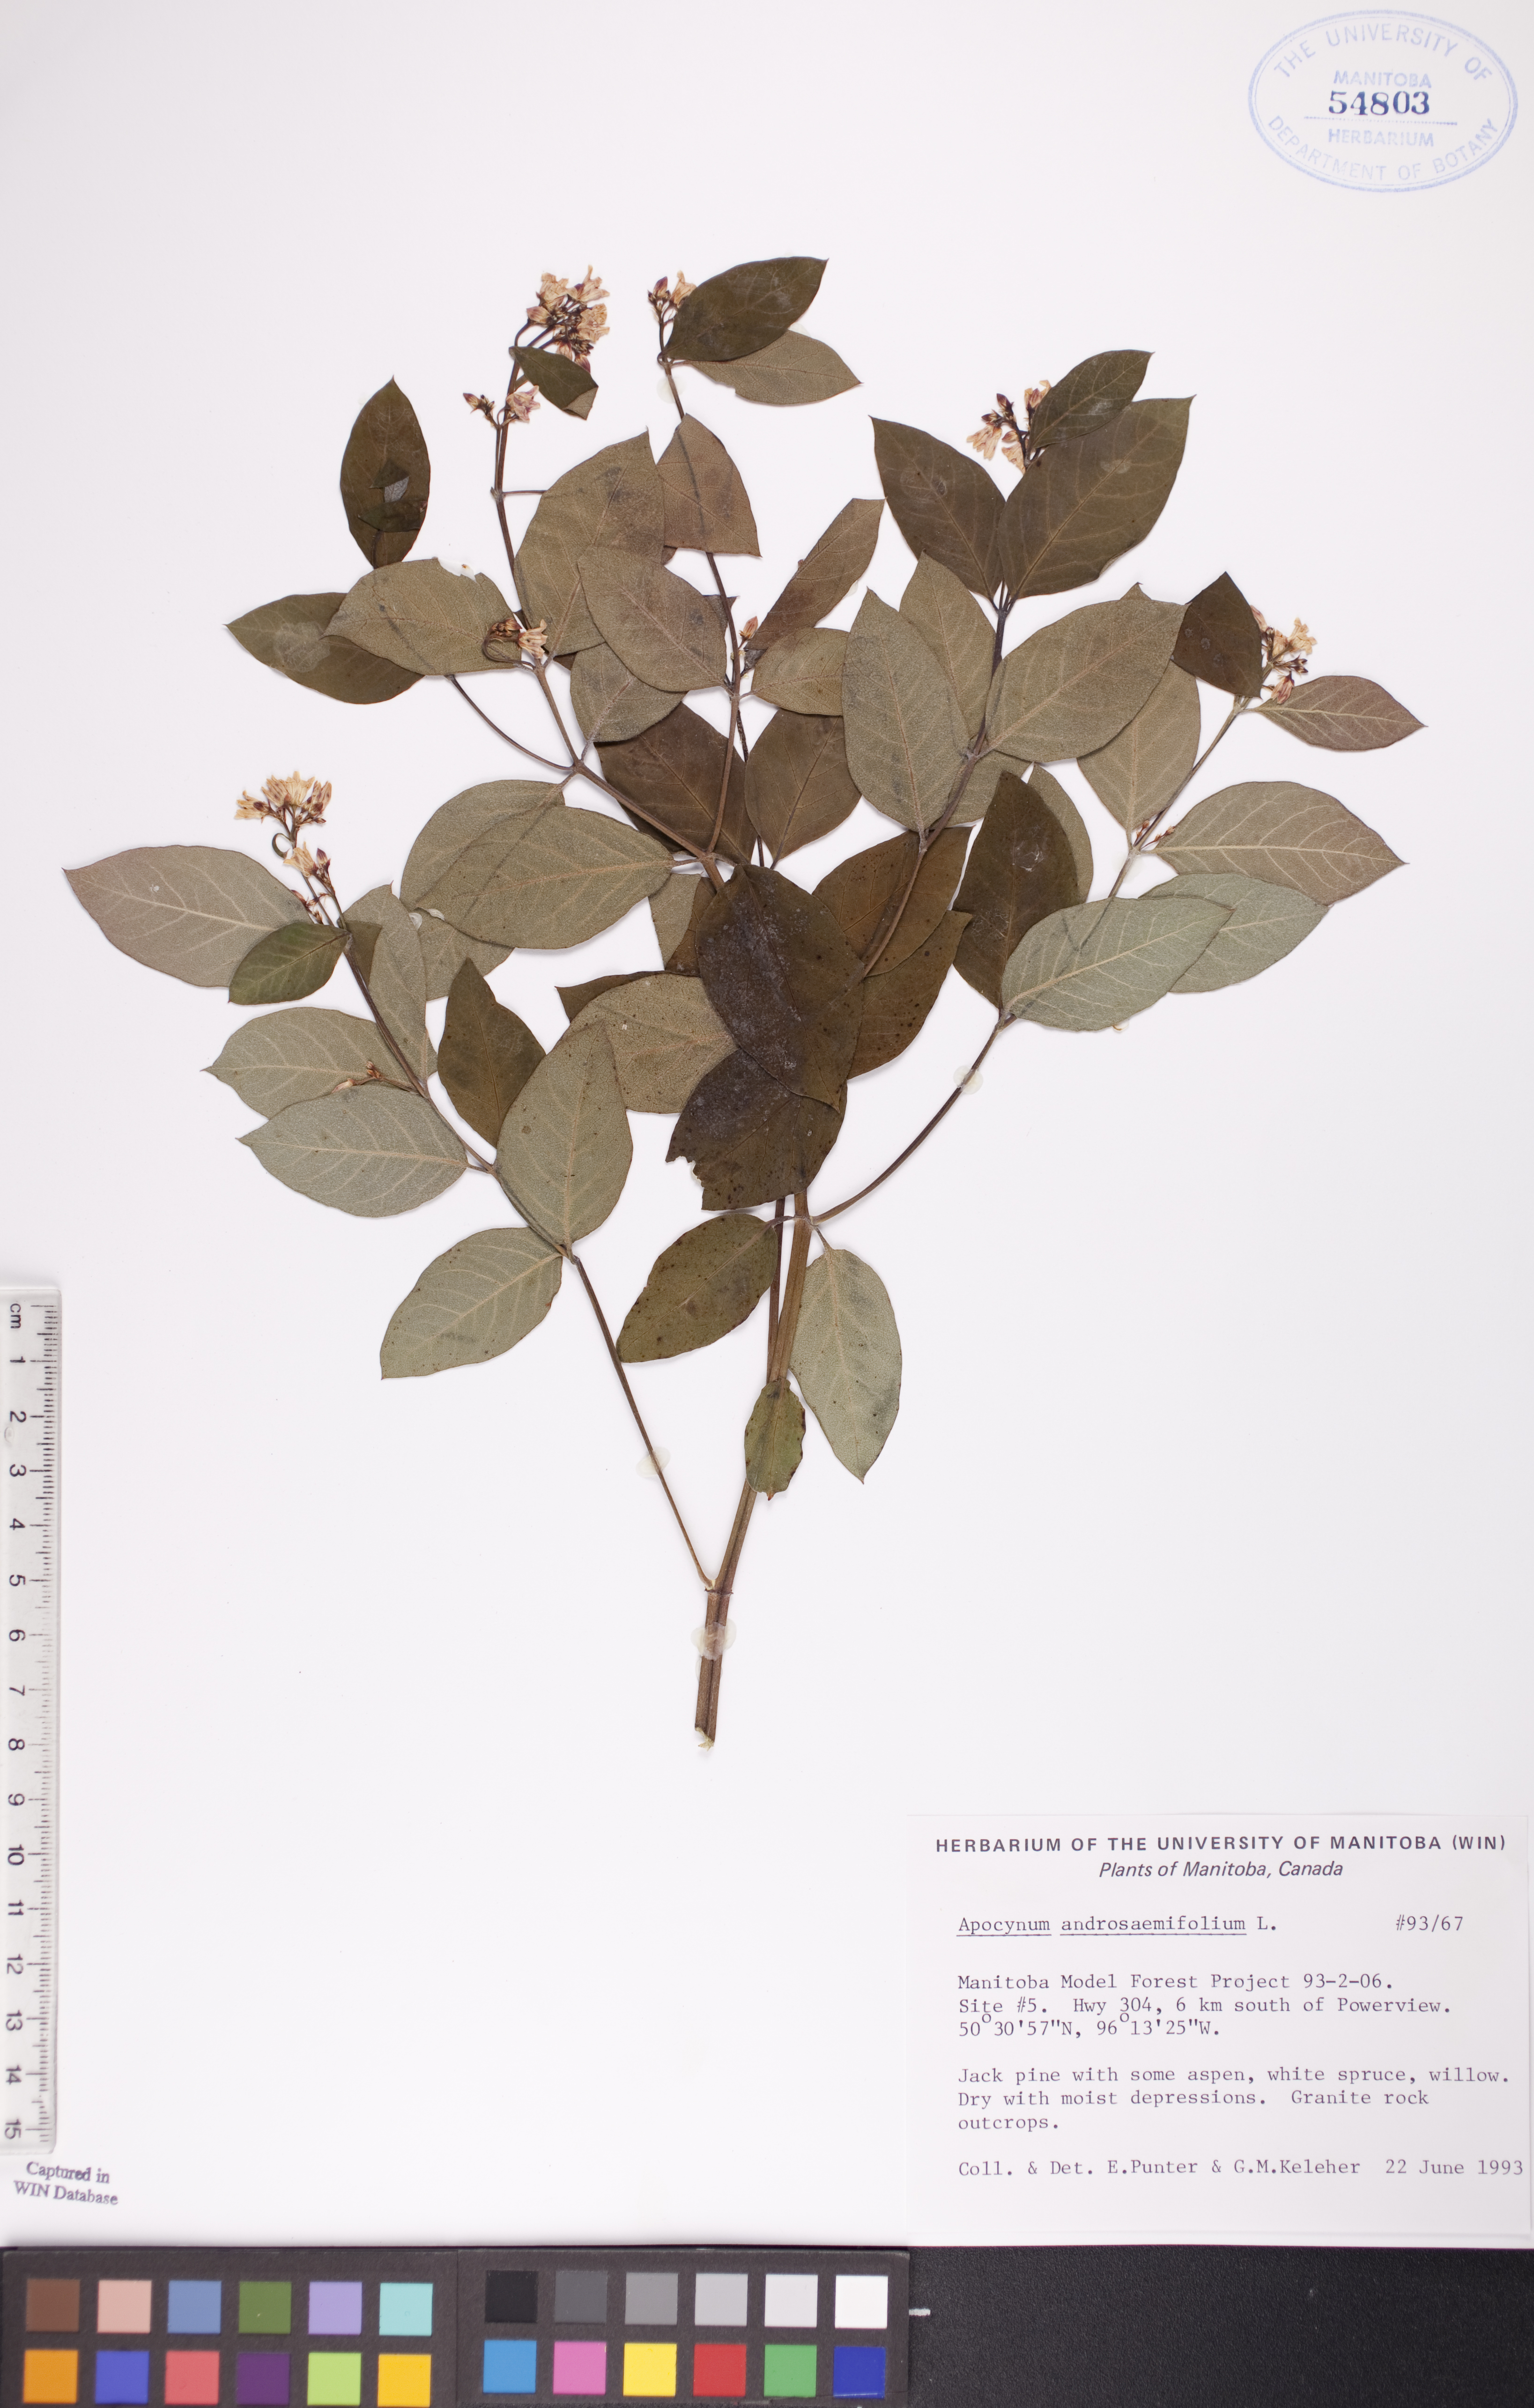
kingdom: Plantae
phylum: Tracheophyta
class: Magnoliopsida
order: Gentianales
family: Apocynaceae
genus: Apocynum
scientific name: Apocynum androsaemifolium
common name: Spreading dogbane
